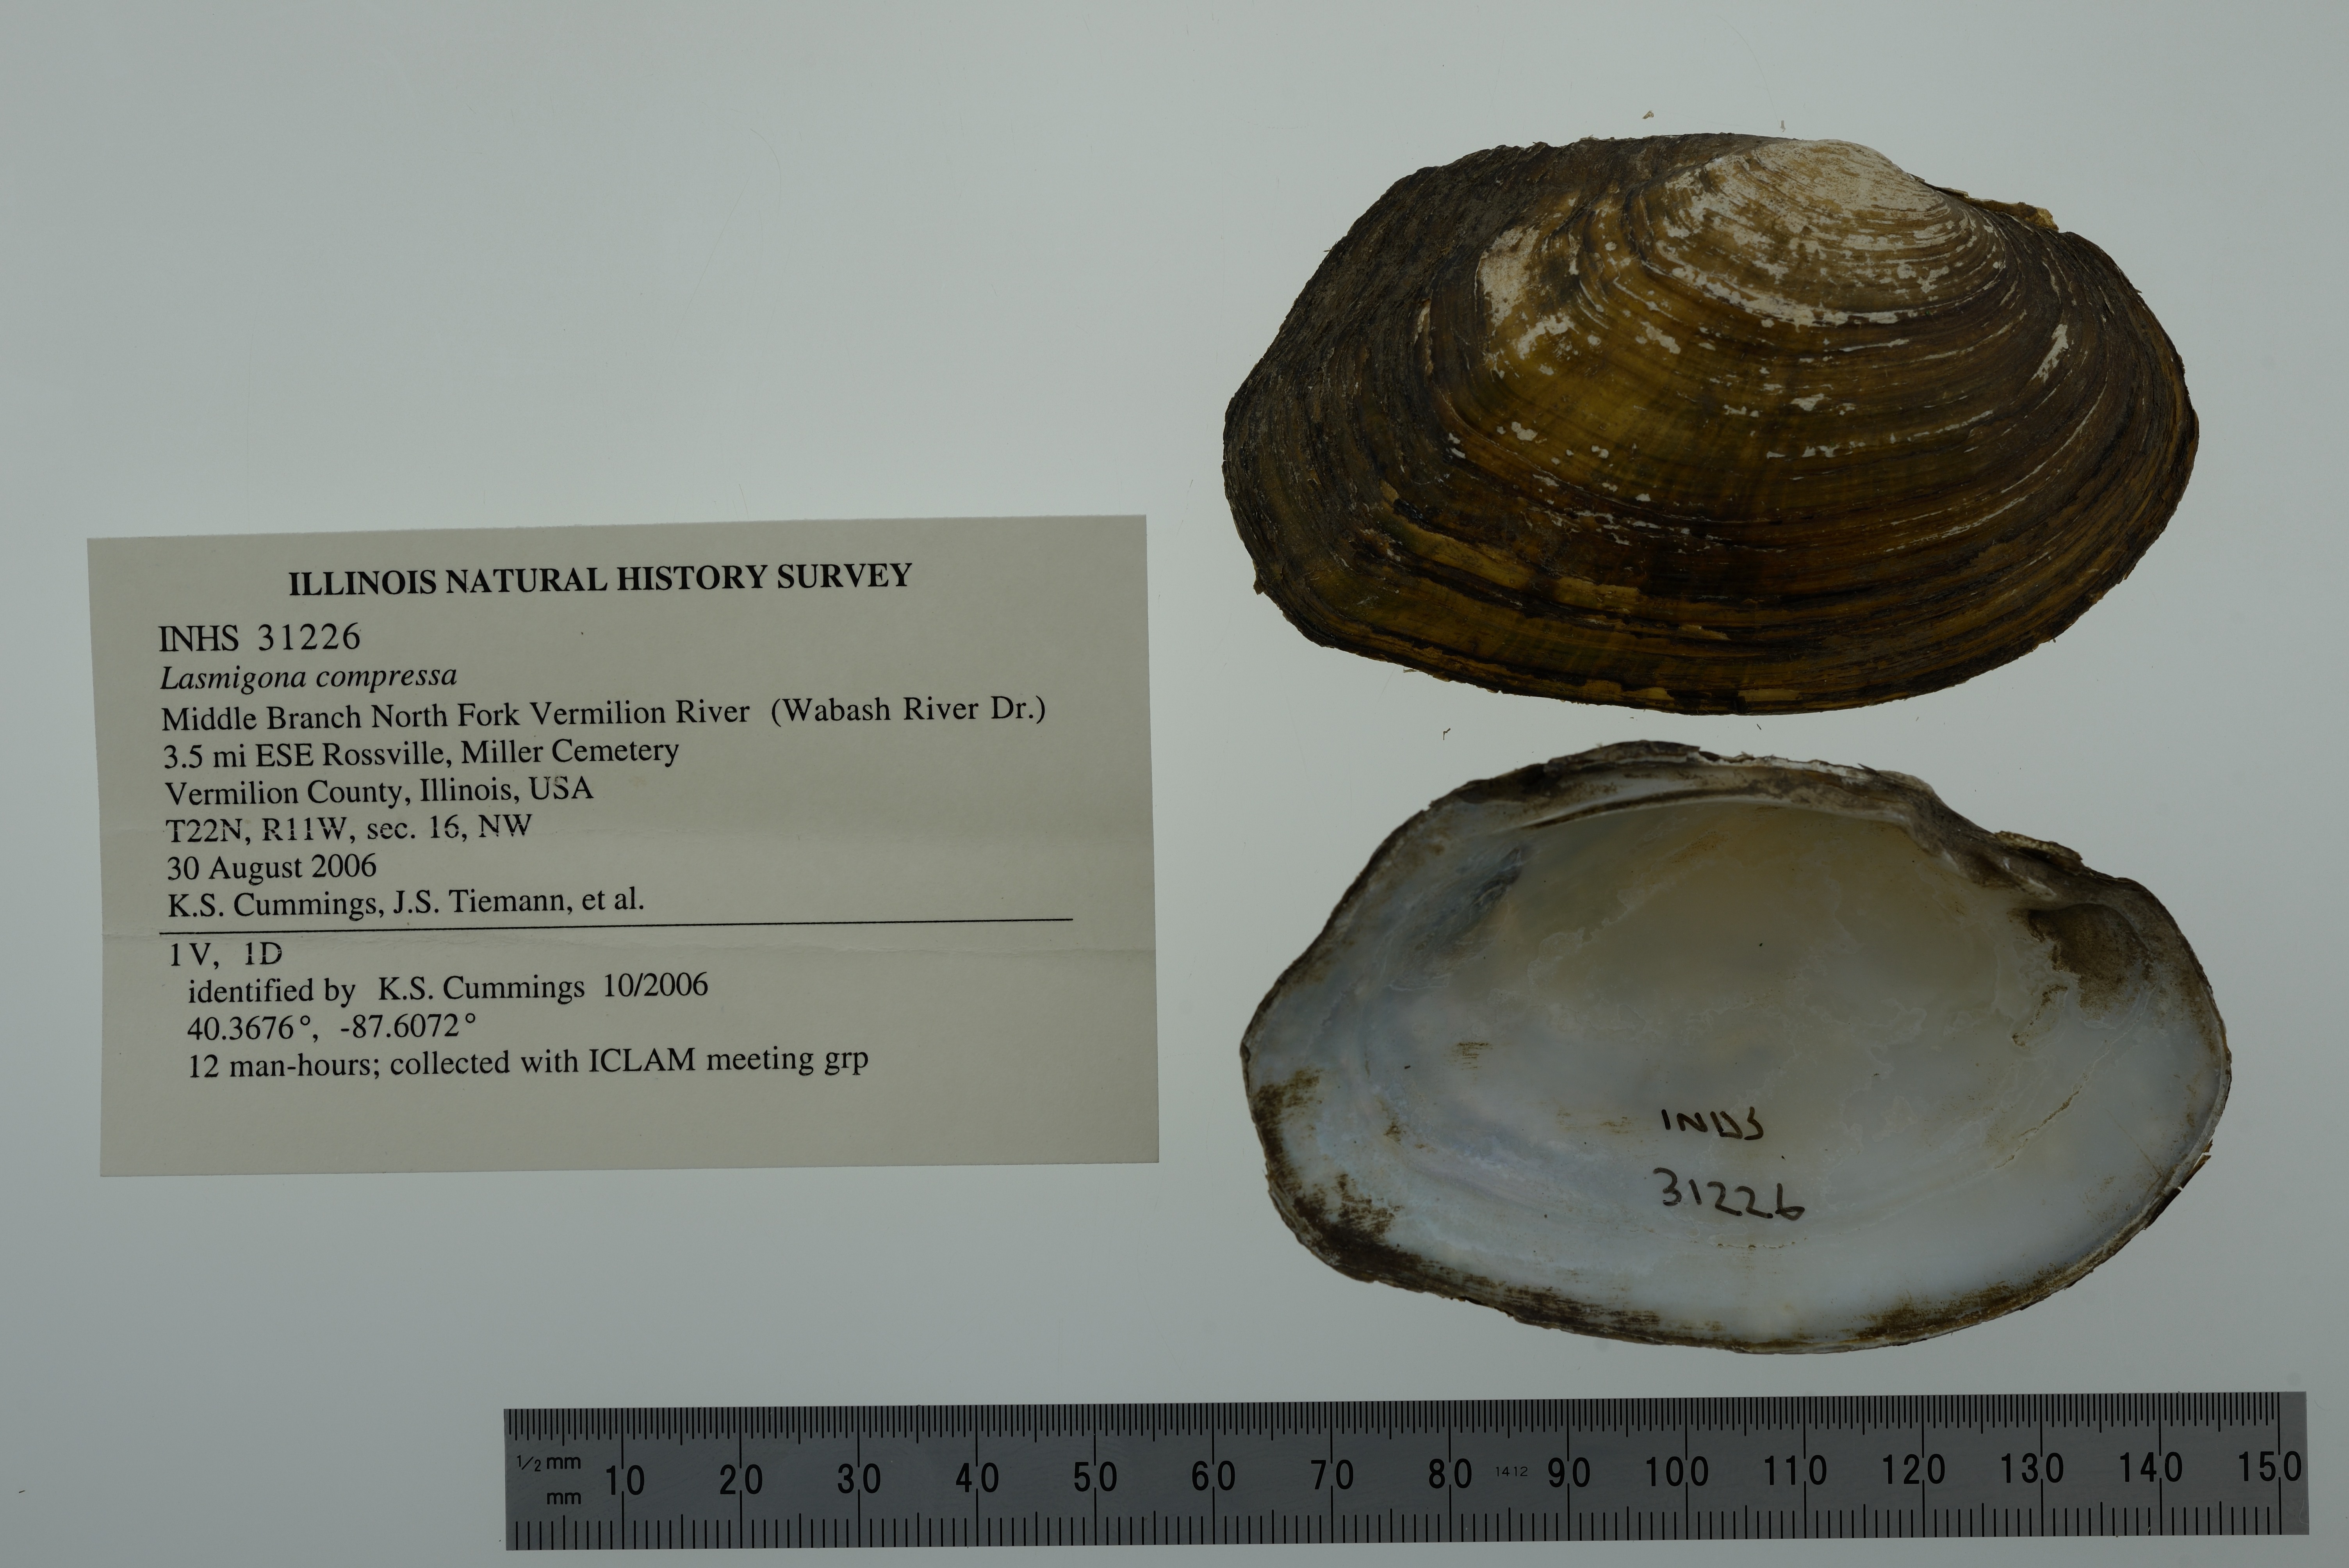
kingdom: Animalia
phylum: Mollusca
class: Bivalvia
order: Unionida
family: Unionidae
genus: Lasmigona
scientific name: Lasmigona compressa
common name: Creek heelsplitter
